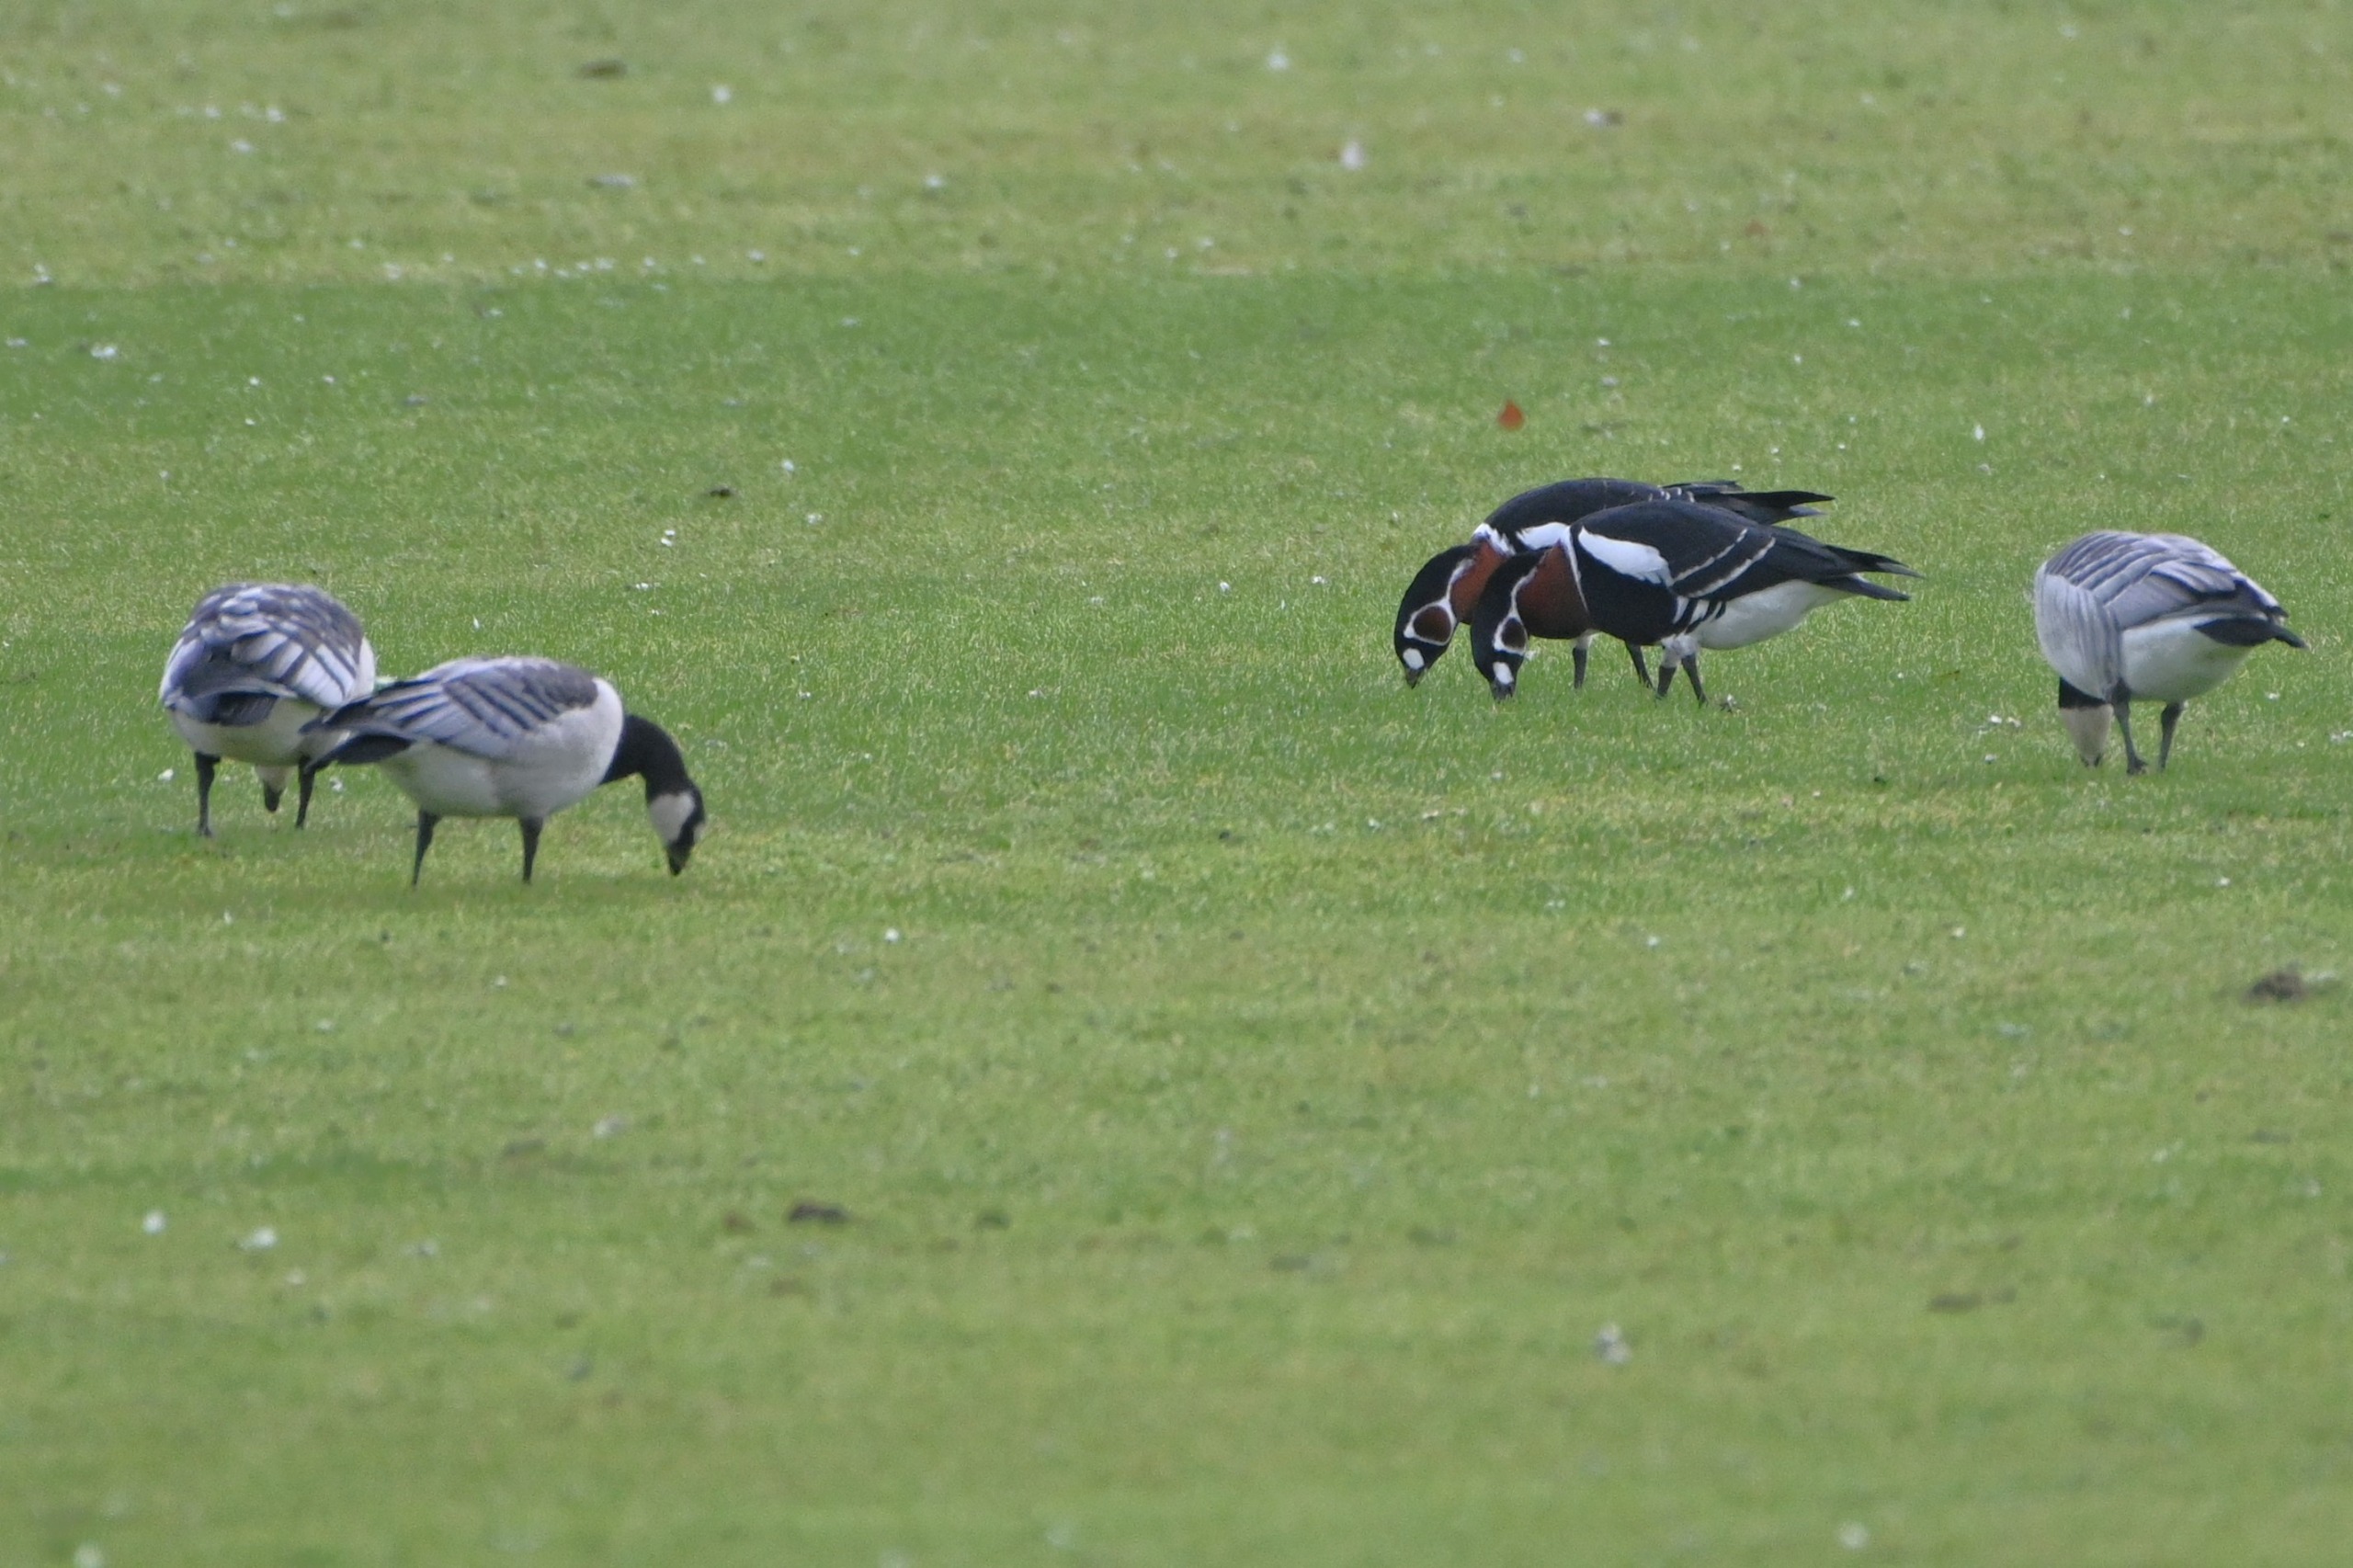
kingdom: Animalia
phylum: Chordata
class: Aves
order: Anseriformes
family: Anatidae
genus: Branta
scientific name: Branta ruficollis
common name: Rødhalset gås
